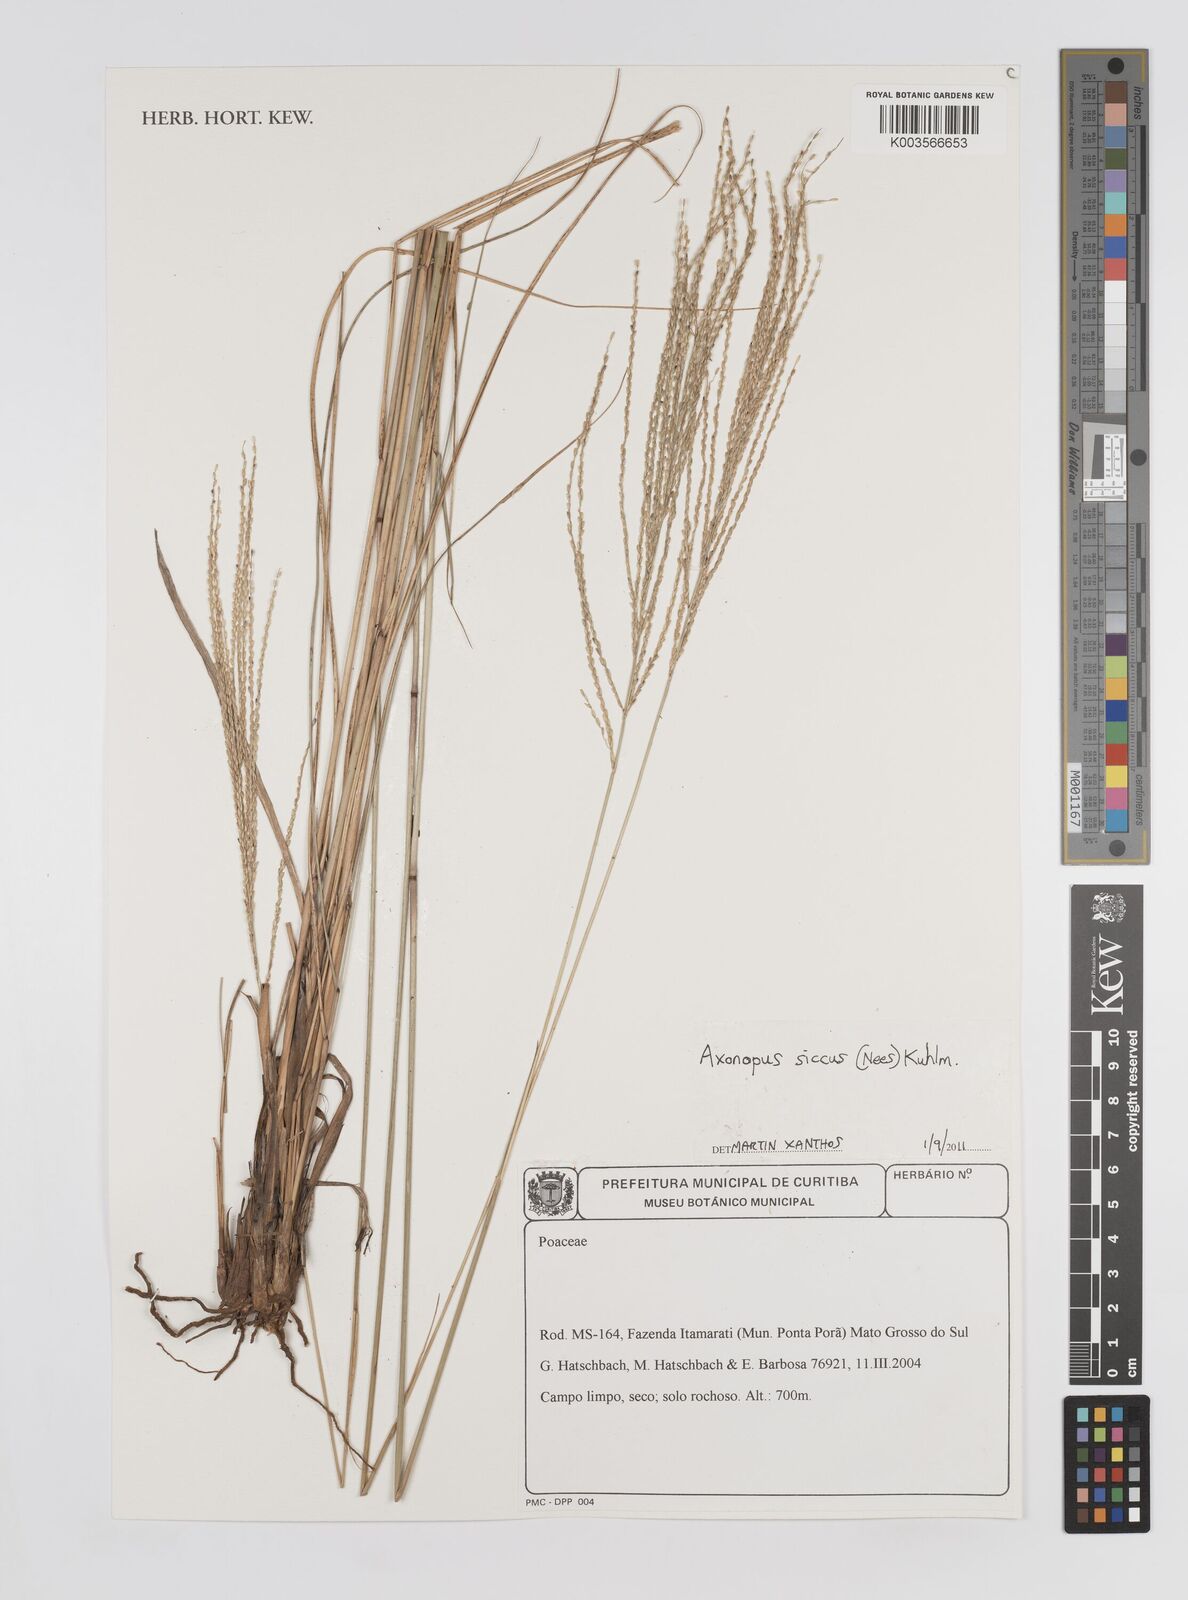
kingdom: Plantae
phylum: Tracheophyta
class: Liliopsida
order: Poales
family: Poaceae
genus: Axonopus
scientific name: Axonopus siccus
